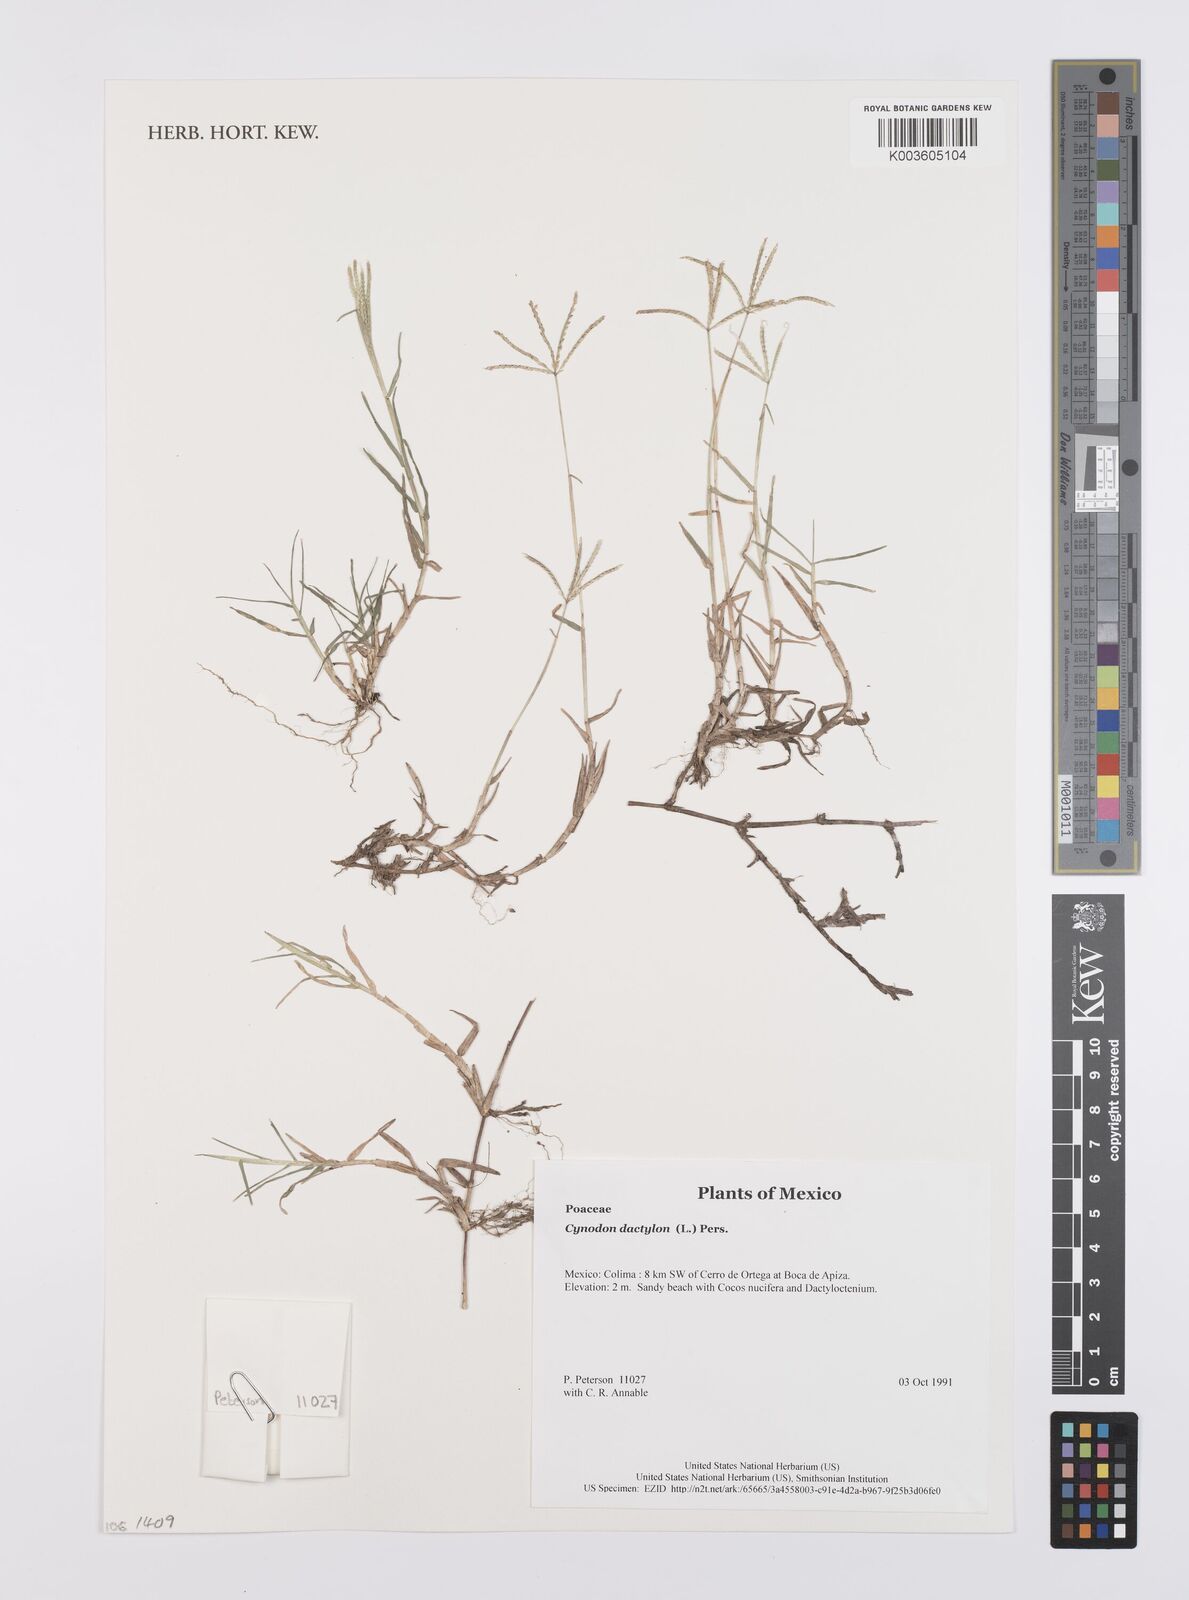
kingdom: Plantae
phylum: Tracheophyta
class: Liliopsida
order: Poales
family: Poaceae
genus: Cynodon
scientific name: Cynodon dactylon
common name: Bermuda grass
